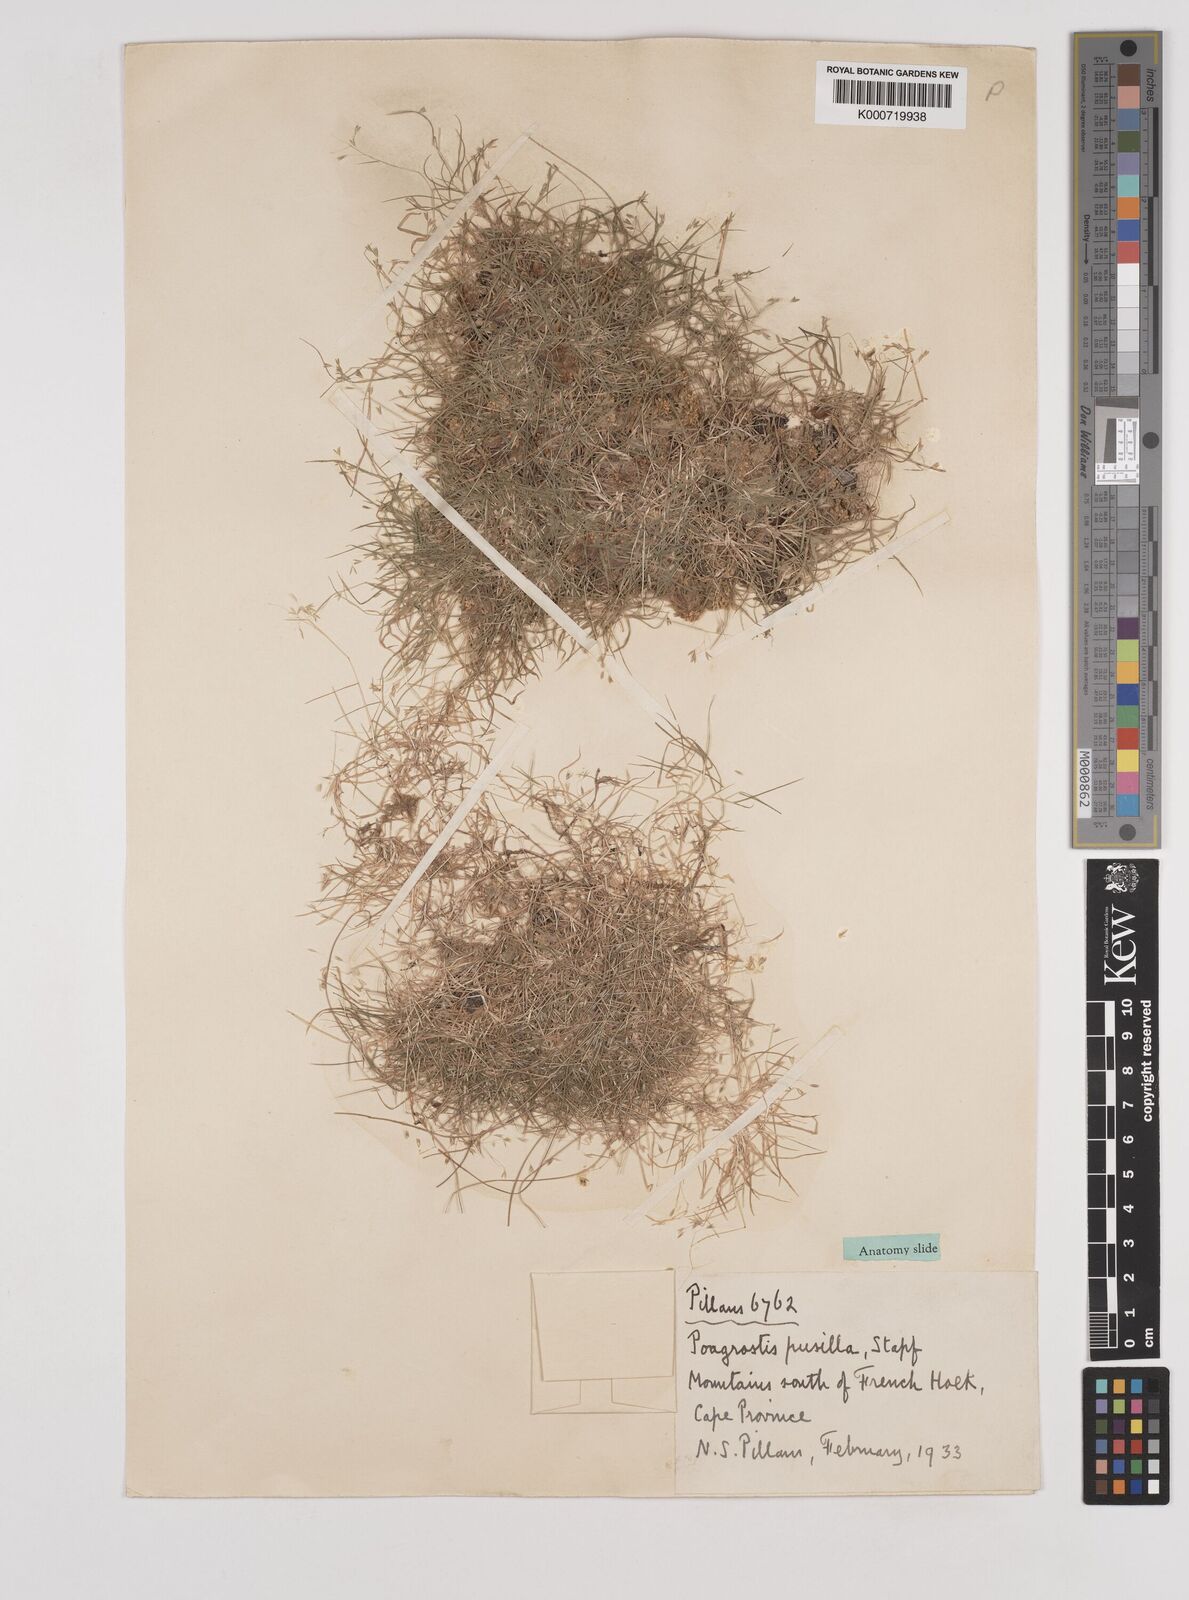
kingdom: Plantae
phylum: Tracheophyta
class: Liliopsida
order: Poales
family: Poaceae
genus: Pentameris
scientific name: Pentameris pusilla
